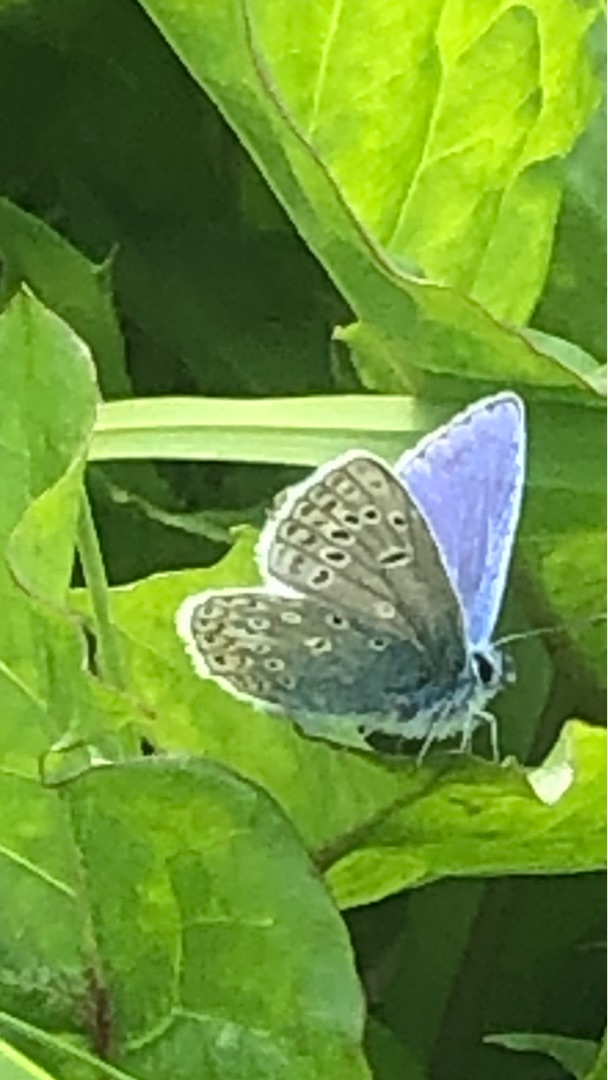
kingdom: Animalia
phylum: Arthropoda
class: Insecta
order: Lepidoptera
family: Lycaenidae
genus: Polyommatus
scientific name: Polyommatus icarus
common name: Almindelig blåfugl
